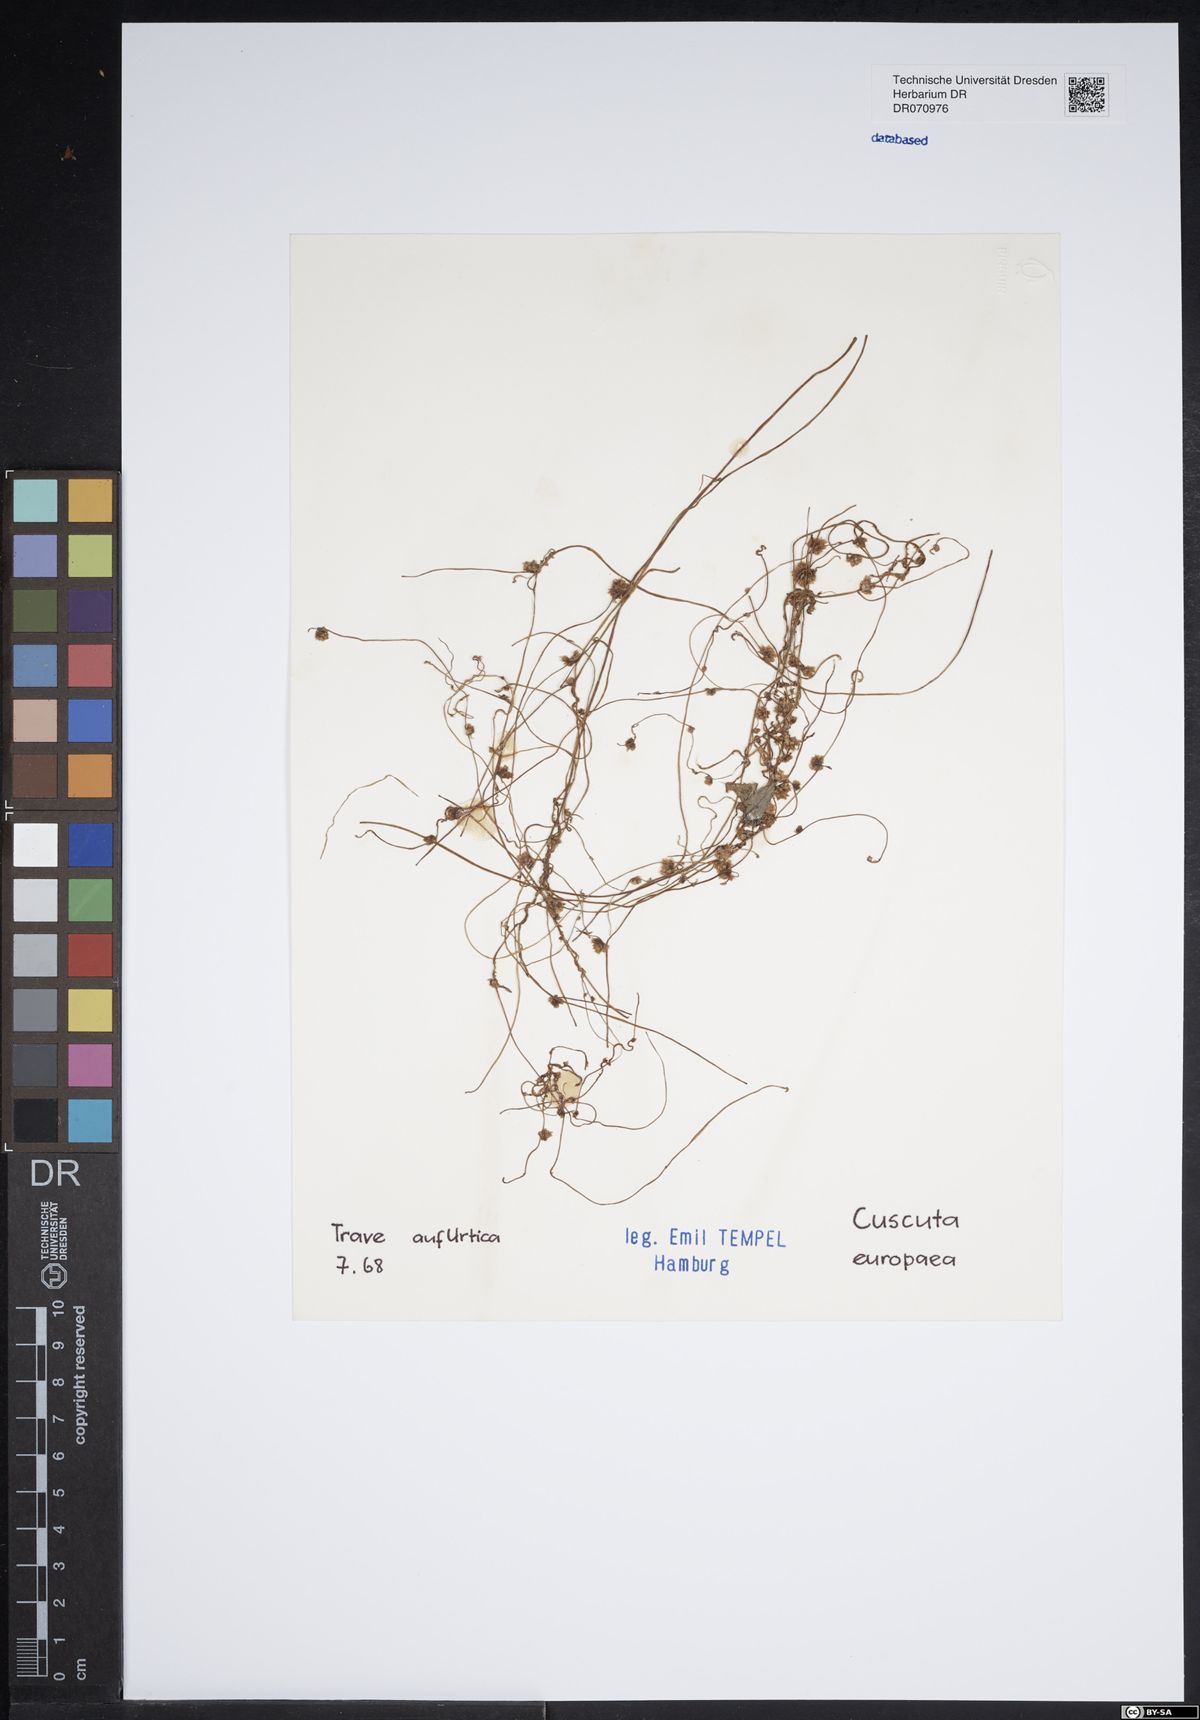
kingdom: Plantae
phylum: Tracheophyta
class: Magnoliopsida
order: Solanales
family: Convolvulaceae
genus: Cuscuta
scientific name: Cuscuta europaea
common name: Greater dodder
